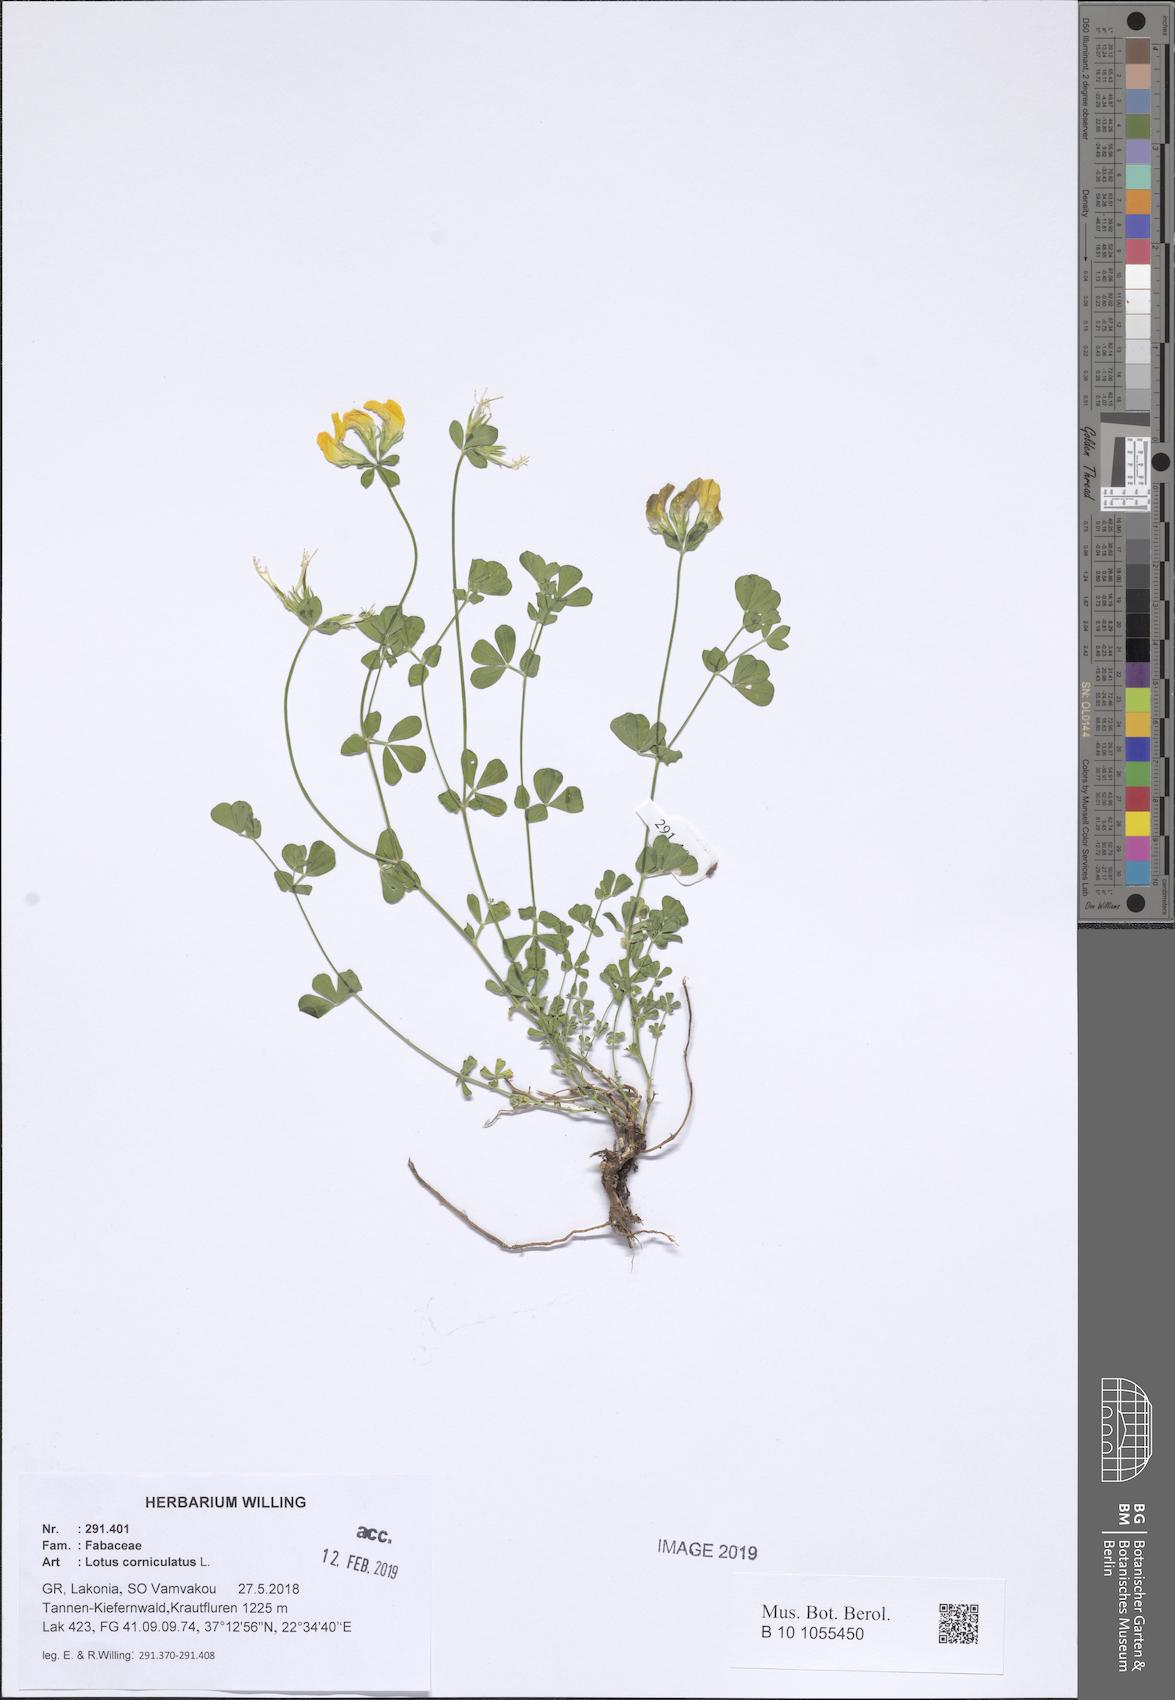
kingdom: Plantae
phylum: Tracheophyta
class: Magnoliopsida
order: Fabales
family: Fabaceae
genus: Lotus
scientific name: Lotus corniculatus
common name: Common bird's-foot-trefoil
